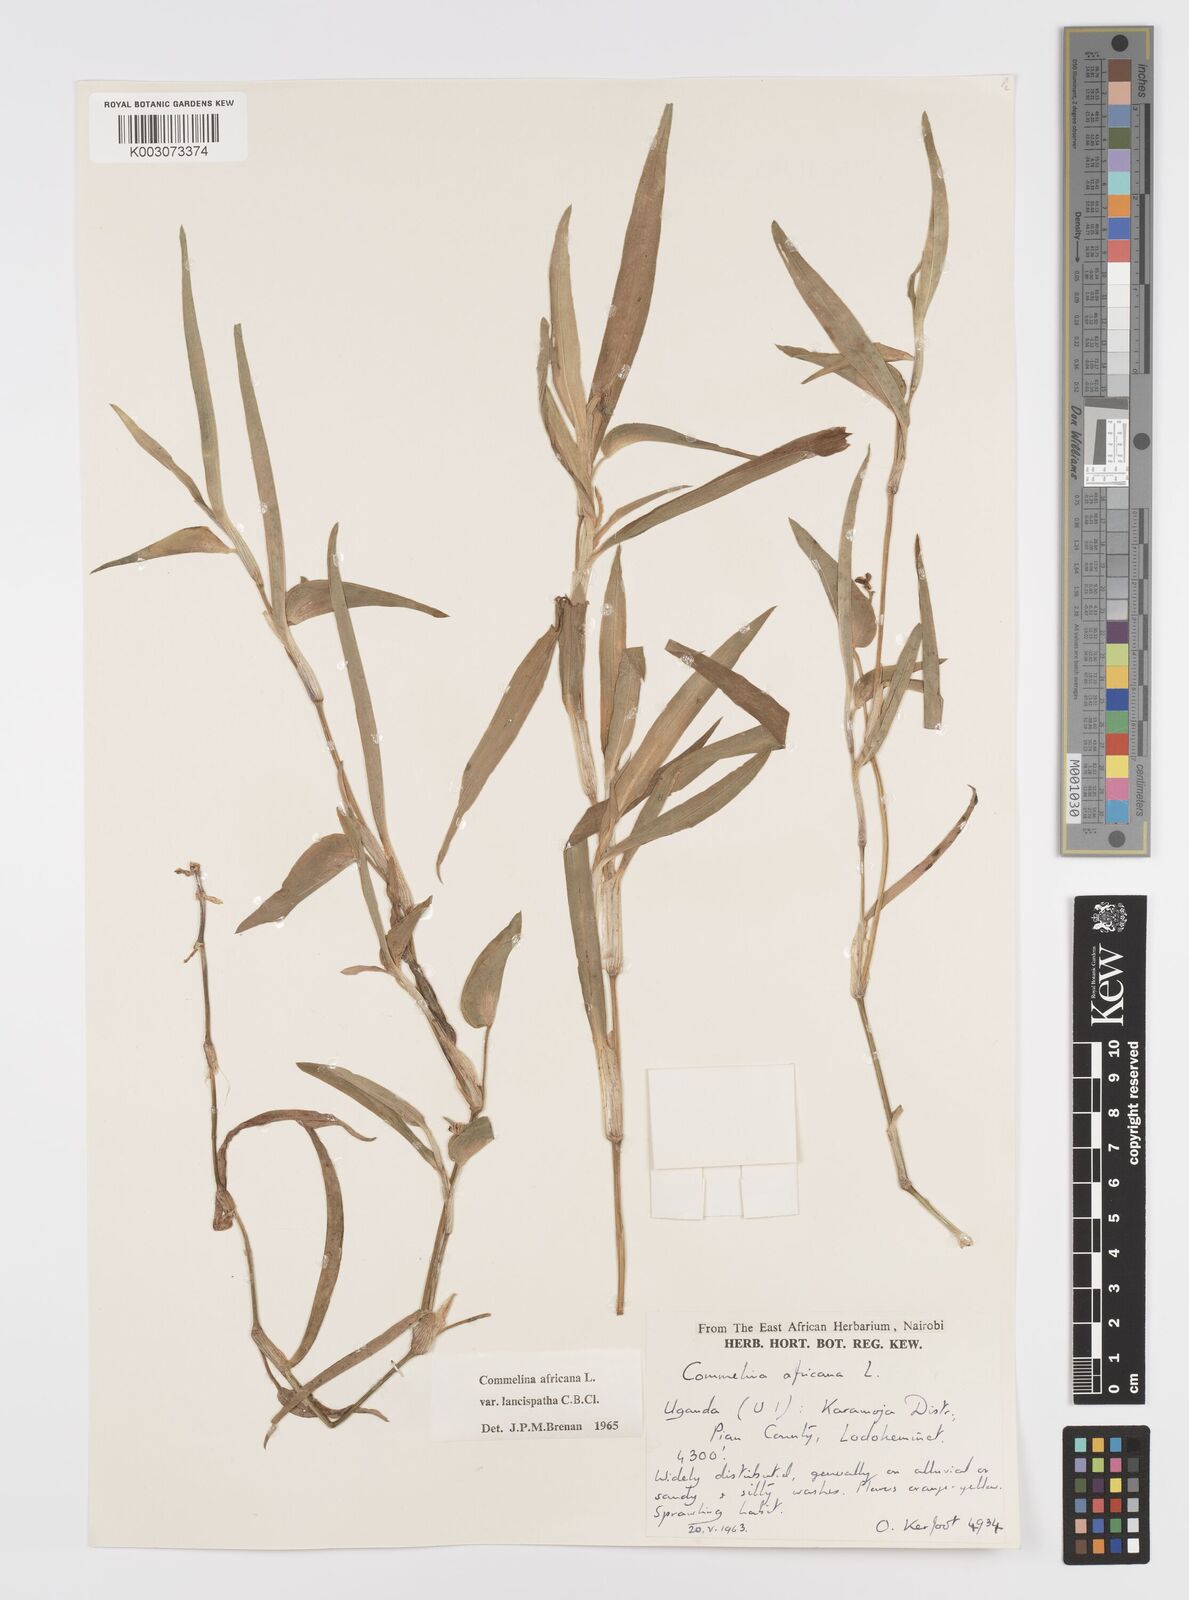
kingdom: Plantae
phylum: Tracheophyta
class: Liliopsida
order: Commelinales
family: Commelinaceae
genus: Commelina
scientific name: Commelina africana
